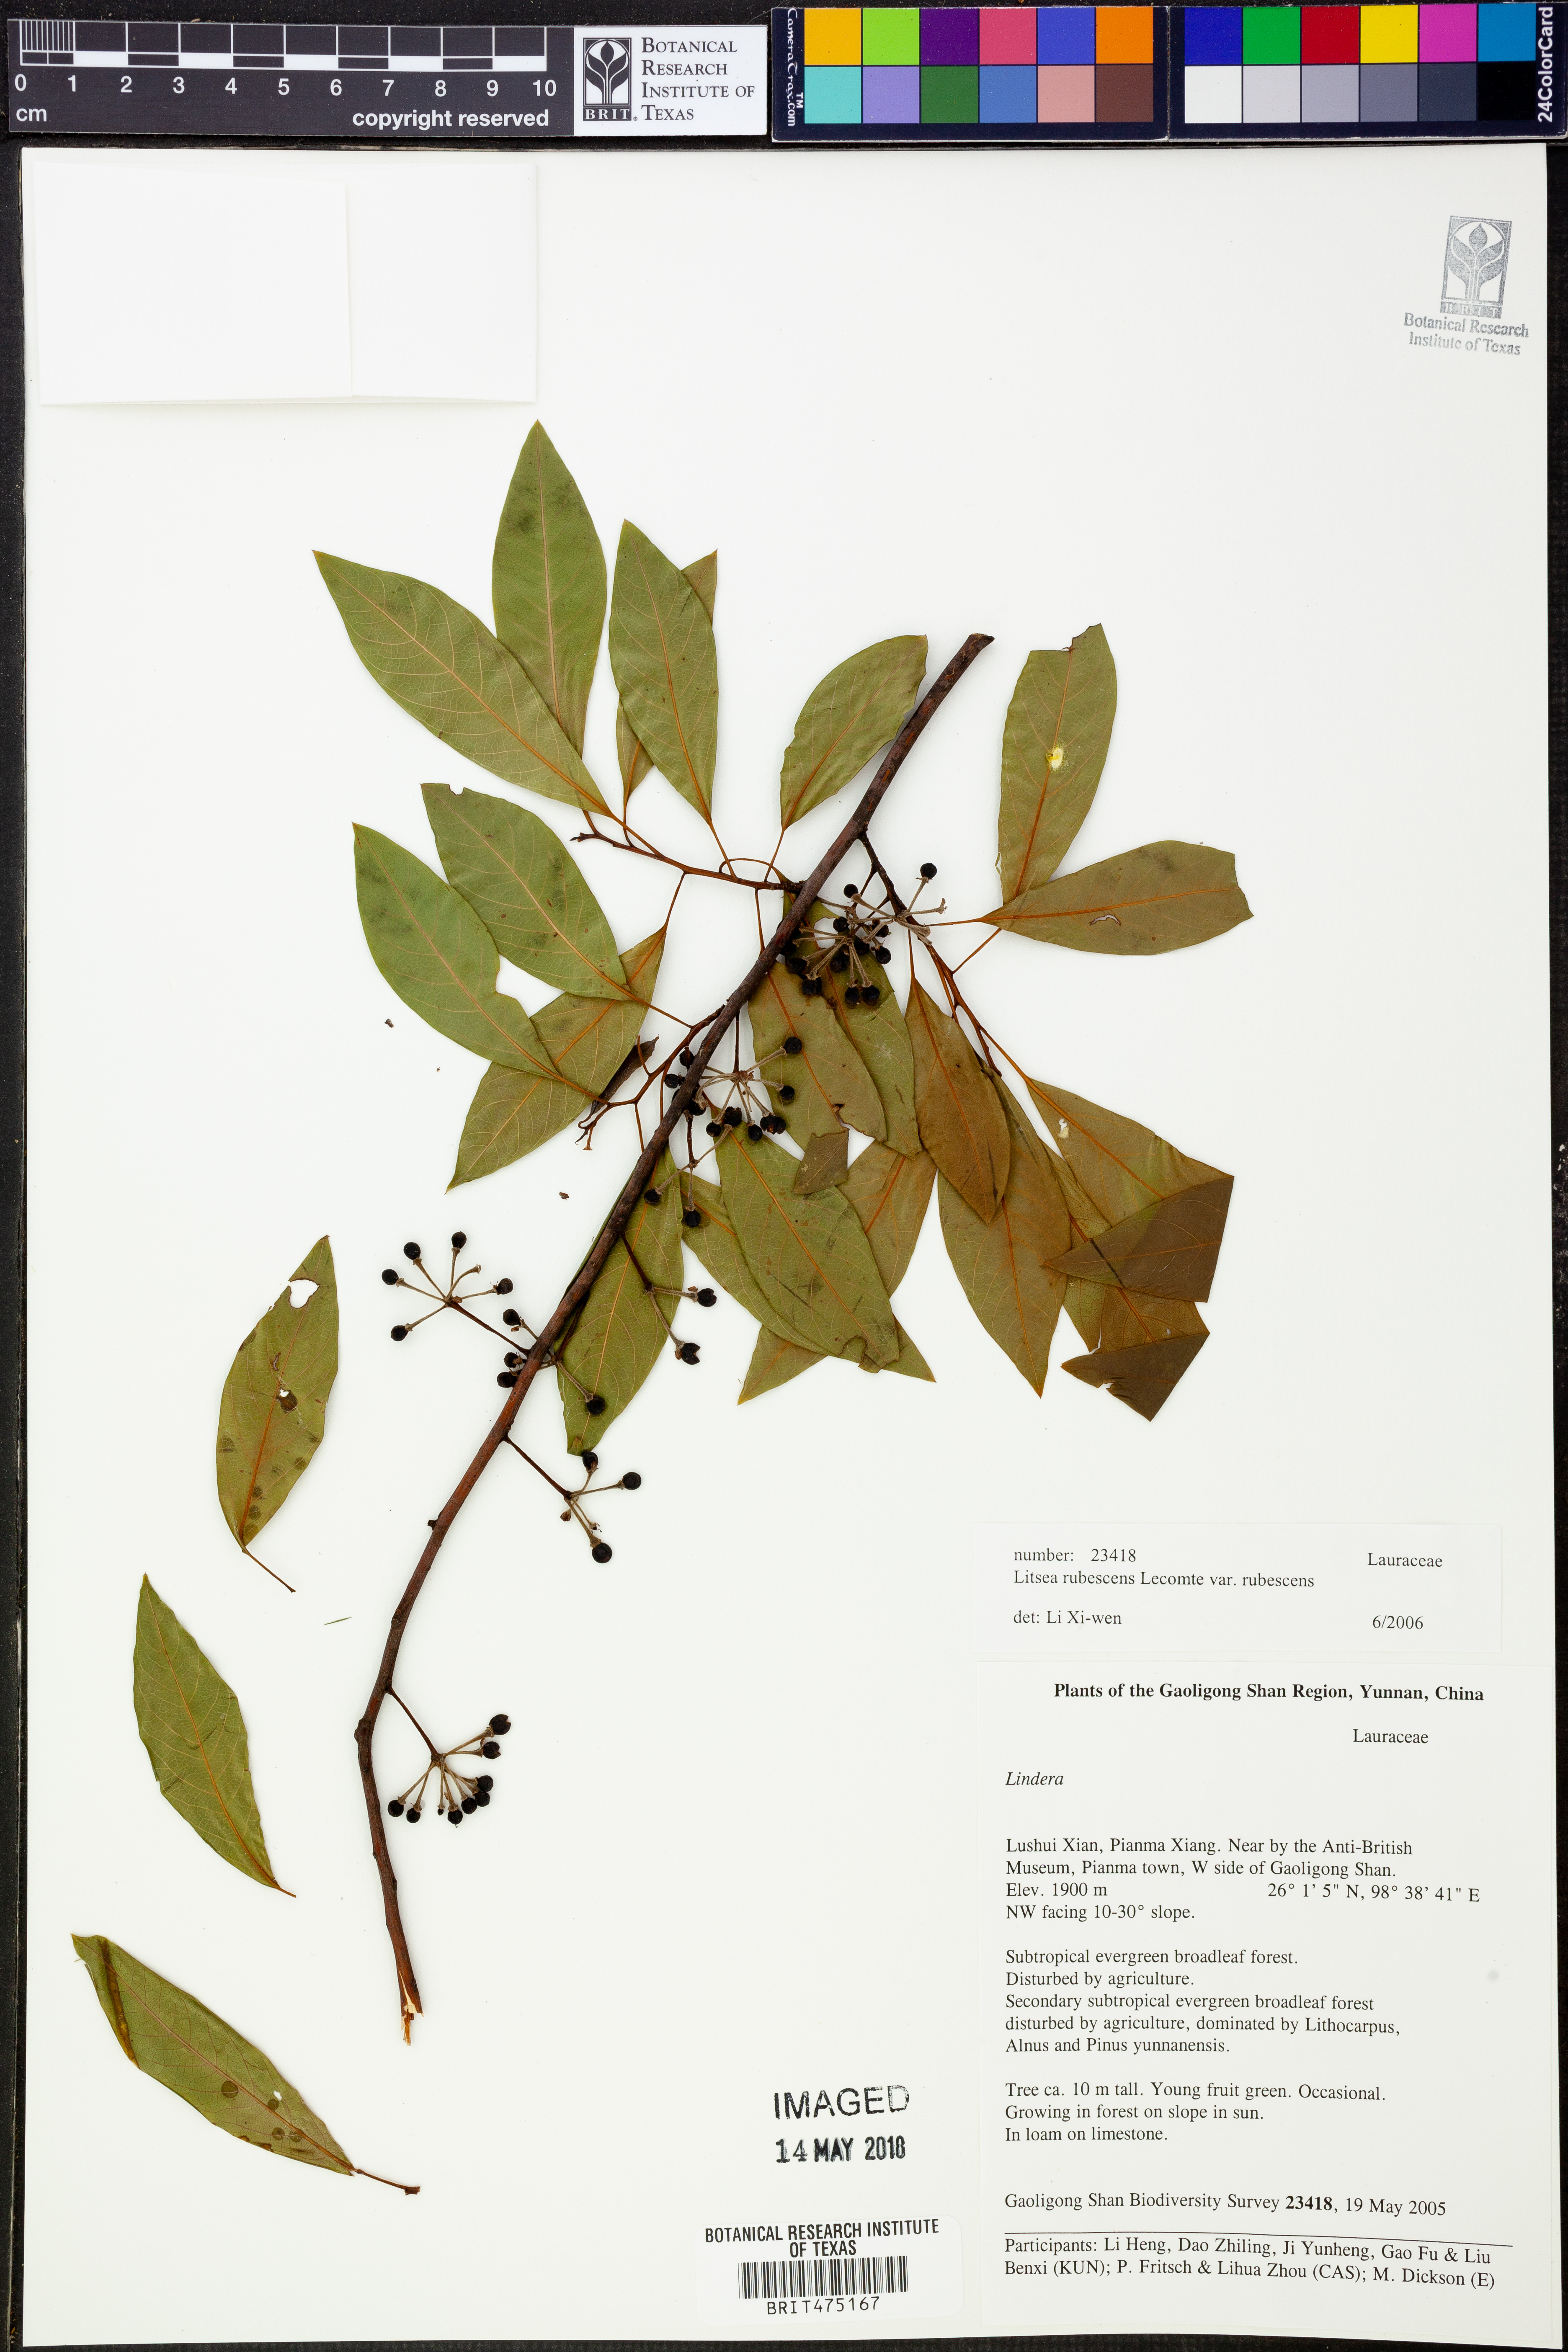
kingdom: Plantae
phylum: Tracheophyta
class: Magnoliopsida
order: Laurales
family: Lauraceae
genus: Litsea
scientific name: Litsea rubescens
